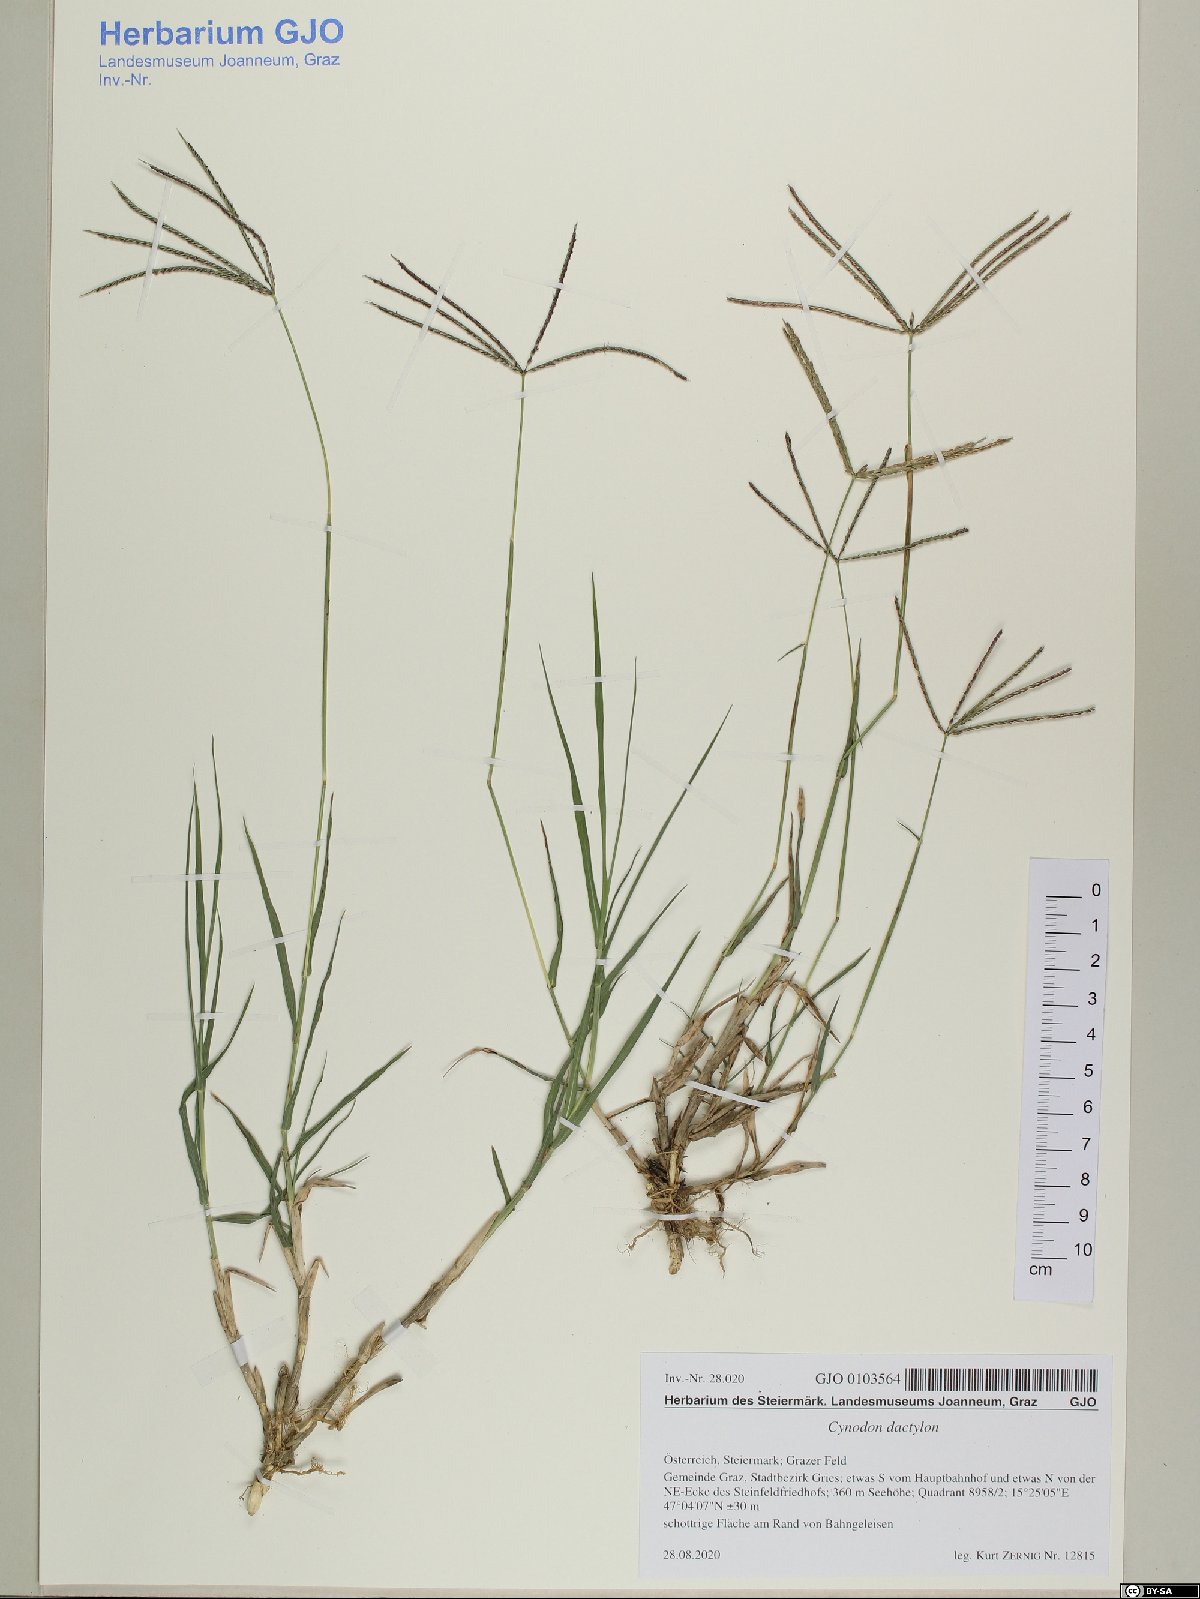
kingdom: Plantae
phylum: Tracheophyta
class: Liliopsida
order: Poales
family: Poaceae
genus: Cynodon
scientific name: Cynodon dactylon
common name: Bermuda grass
